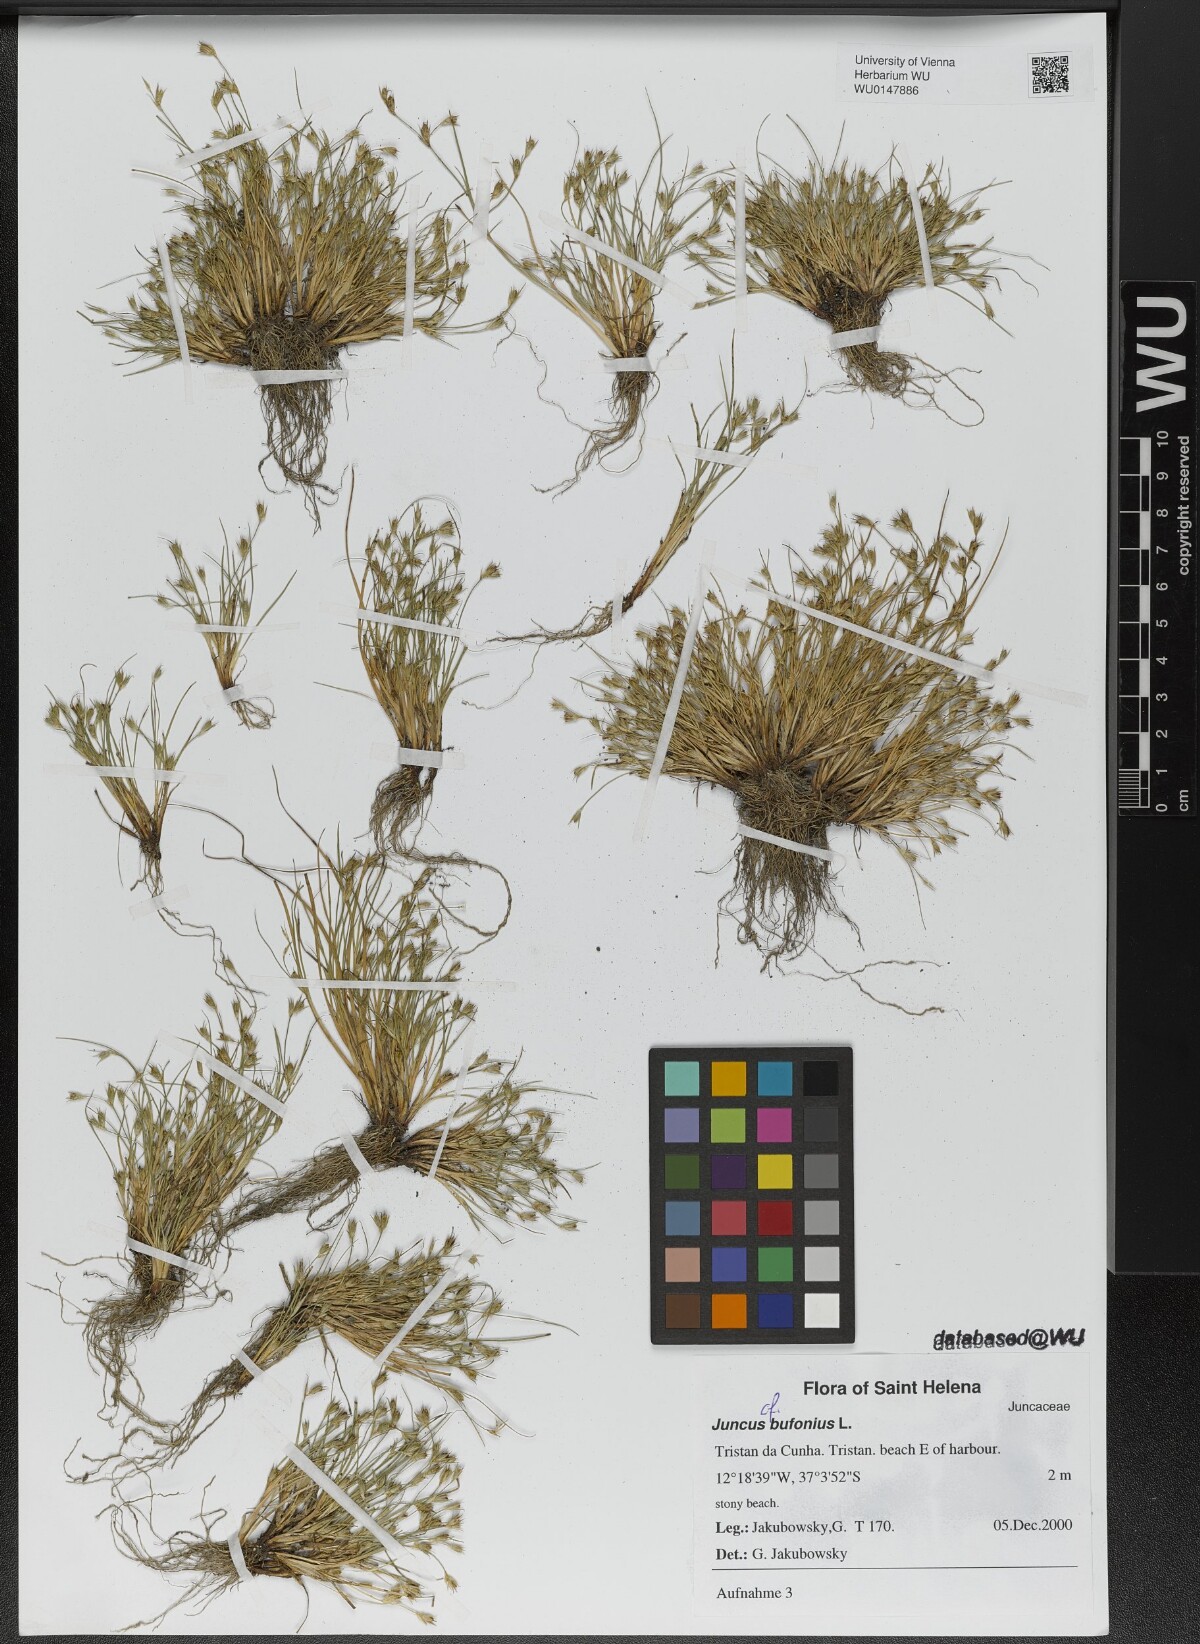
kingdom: Plantae
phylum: Tracheophyta
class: Liliopsida
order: Poales
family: Juncaceae
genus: Juncus
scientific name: Juncus bufonius
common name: Toad rush
